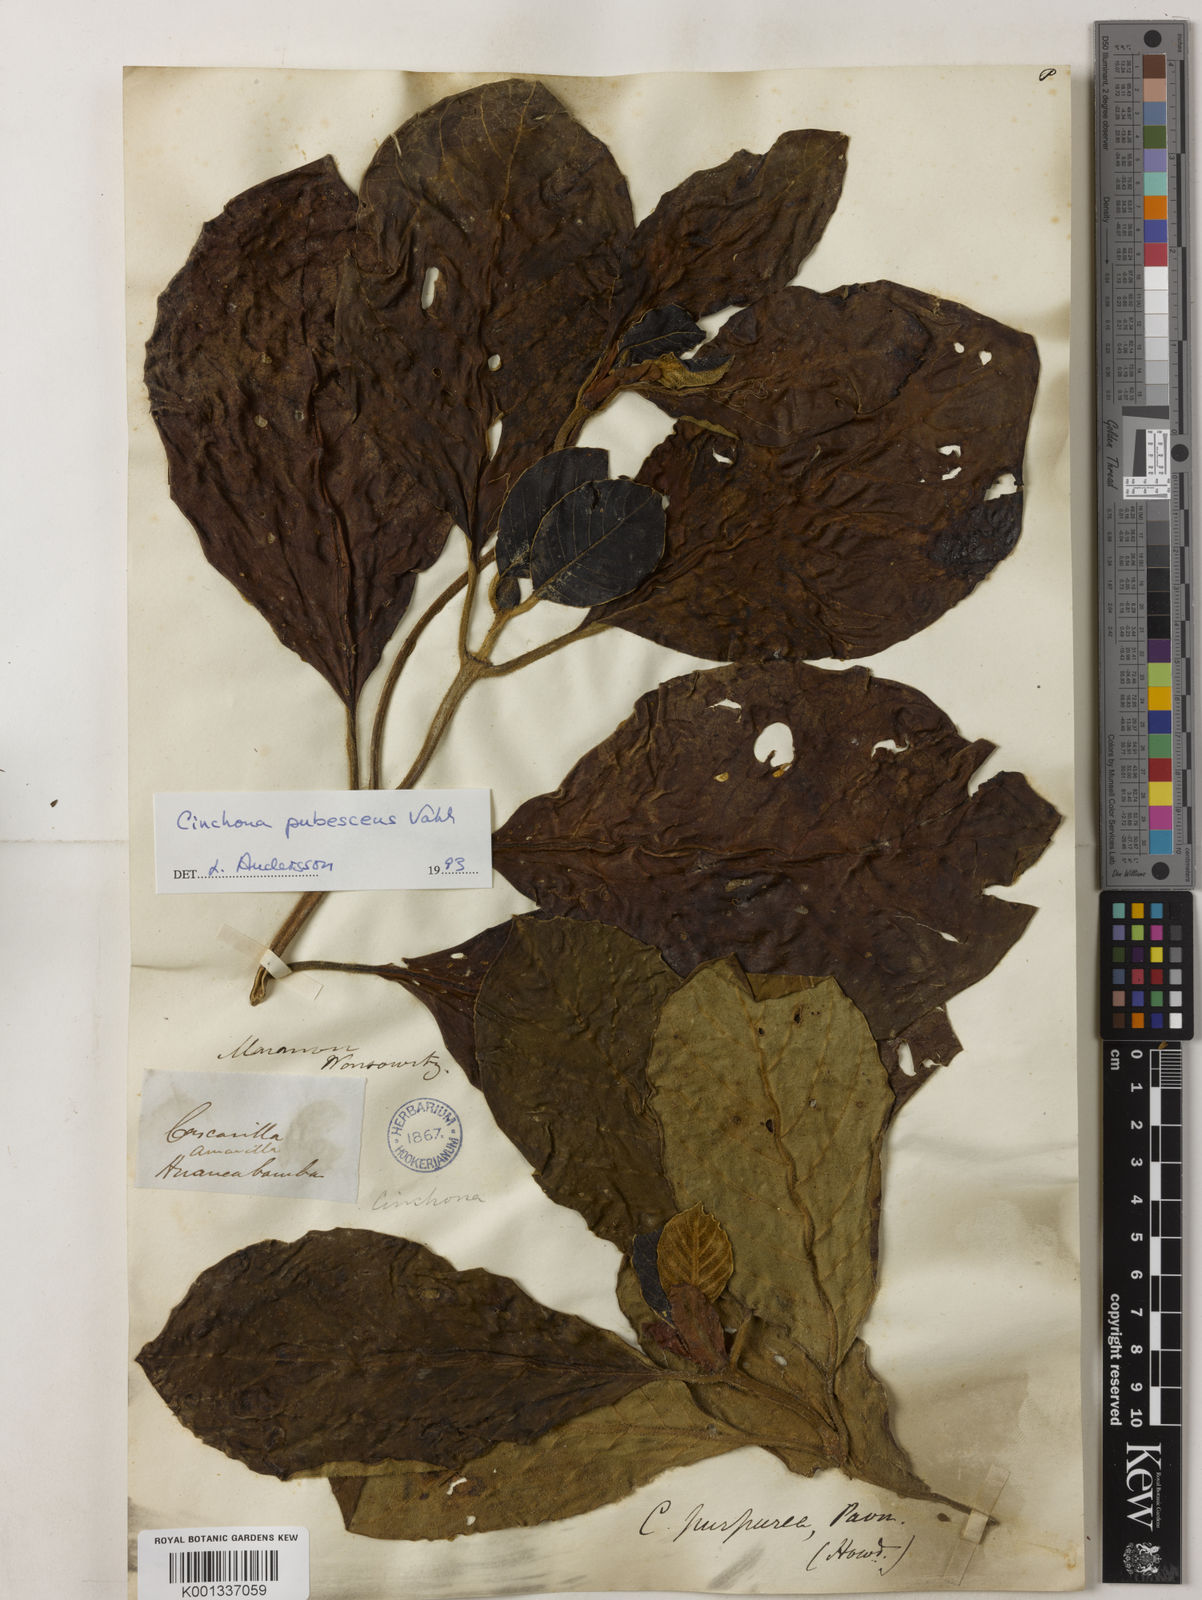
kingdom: Plantae
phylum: Tracheophyta
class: Magnoliopsida
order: Gentianales
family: Rubiaceae
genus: Cinchona
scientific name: Cinchona pubescens
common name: Quinine
